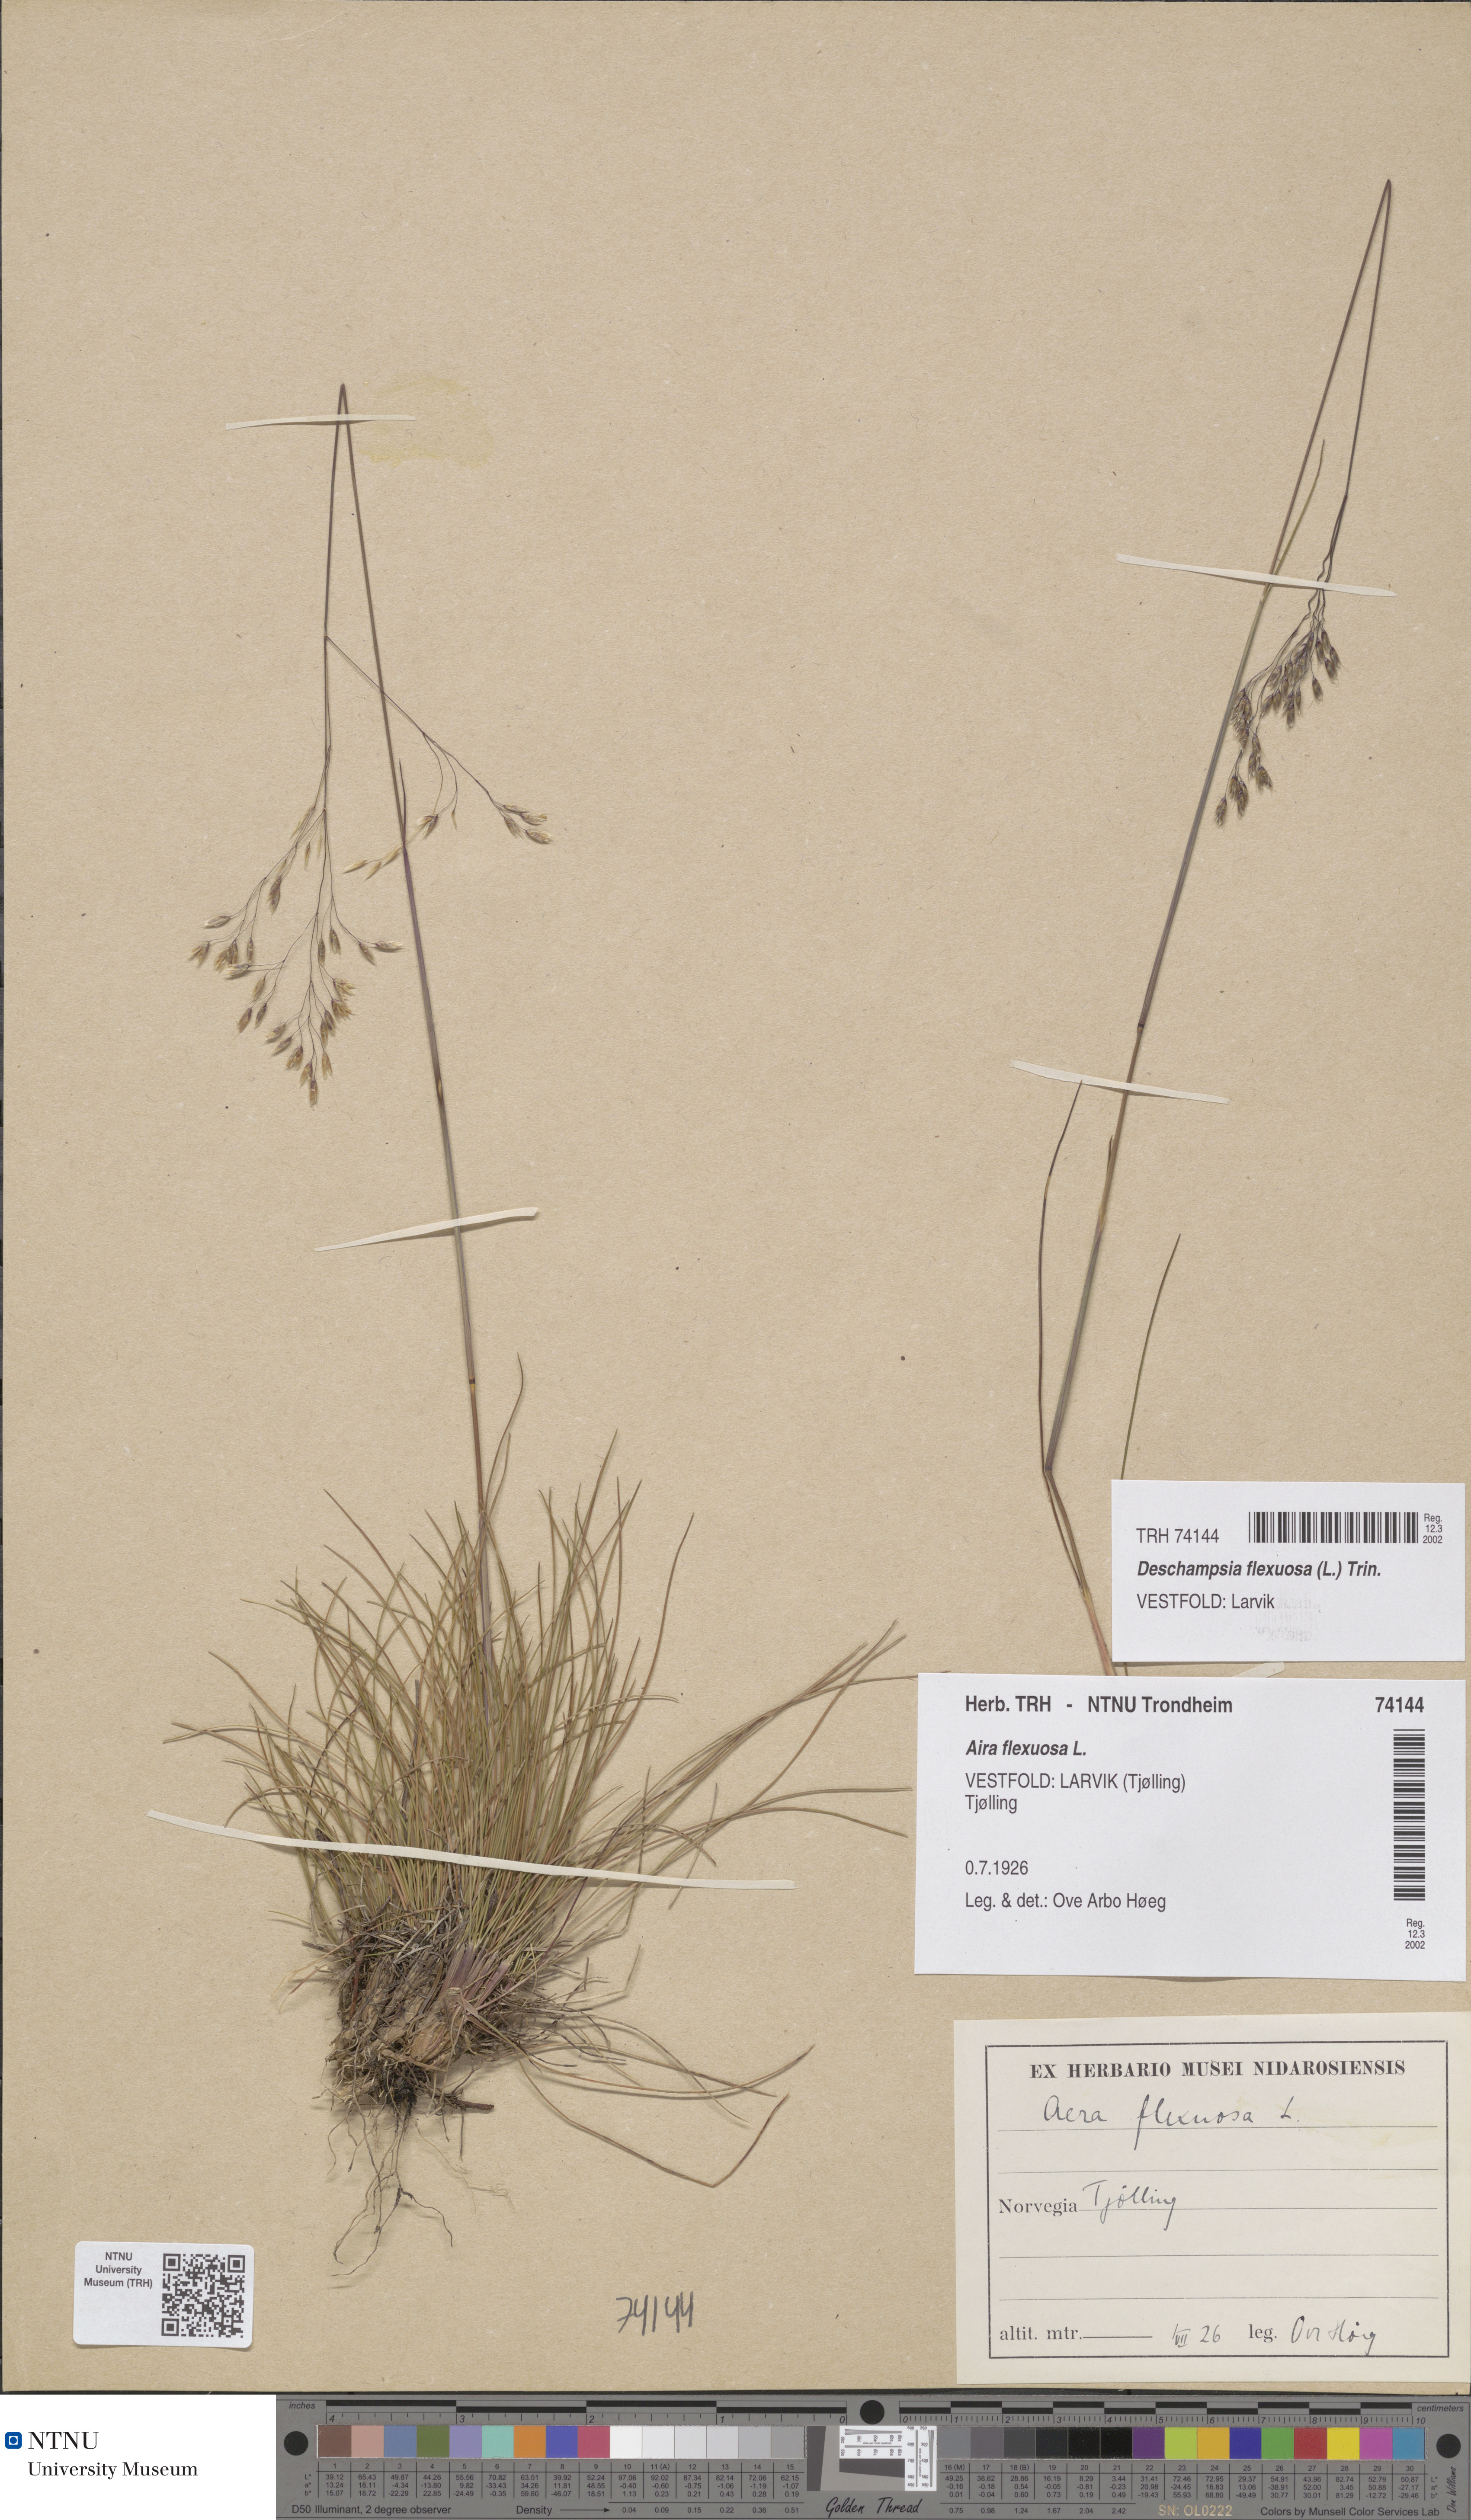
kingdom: Plantae
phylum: Tracheophyta
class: Liliopsida
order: Poales
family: Poaceae
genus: Avenella
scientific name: Avenella flexuosa
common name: Wavy hairgrass
